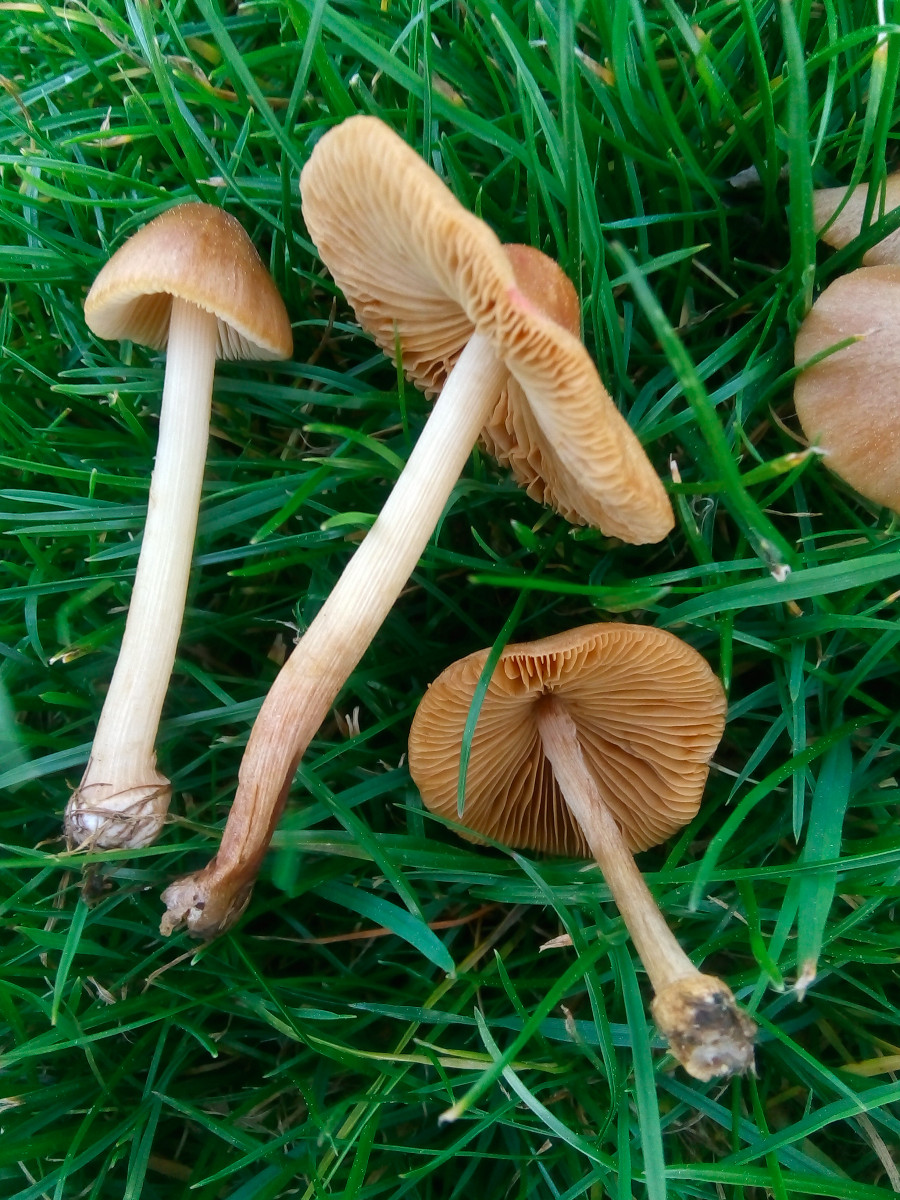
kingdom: Fungi
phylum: Basidiomycota
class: Agaricomycetes
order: Agaricales
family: Bolbitiaceae
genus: Conocybe
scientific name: Conocybe inocybeoides
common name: knold-keglehat
